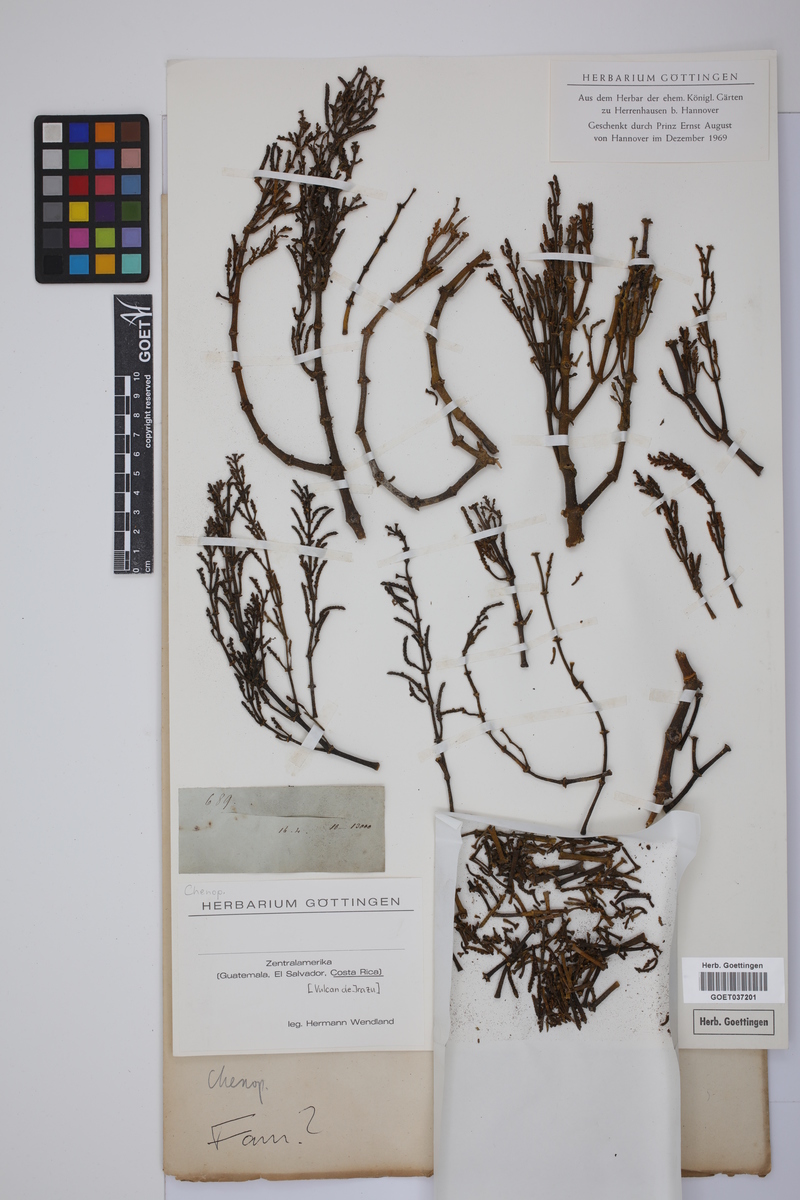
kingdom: Plantae
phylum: Tracheophyta
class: Magnoliopsida
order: Caryophyllales
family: Amaranthaceae
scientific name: Amaranthaceae
